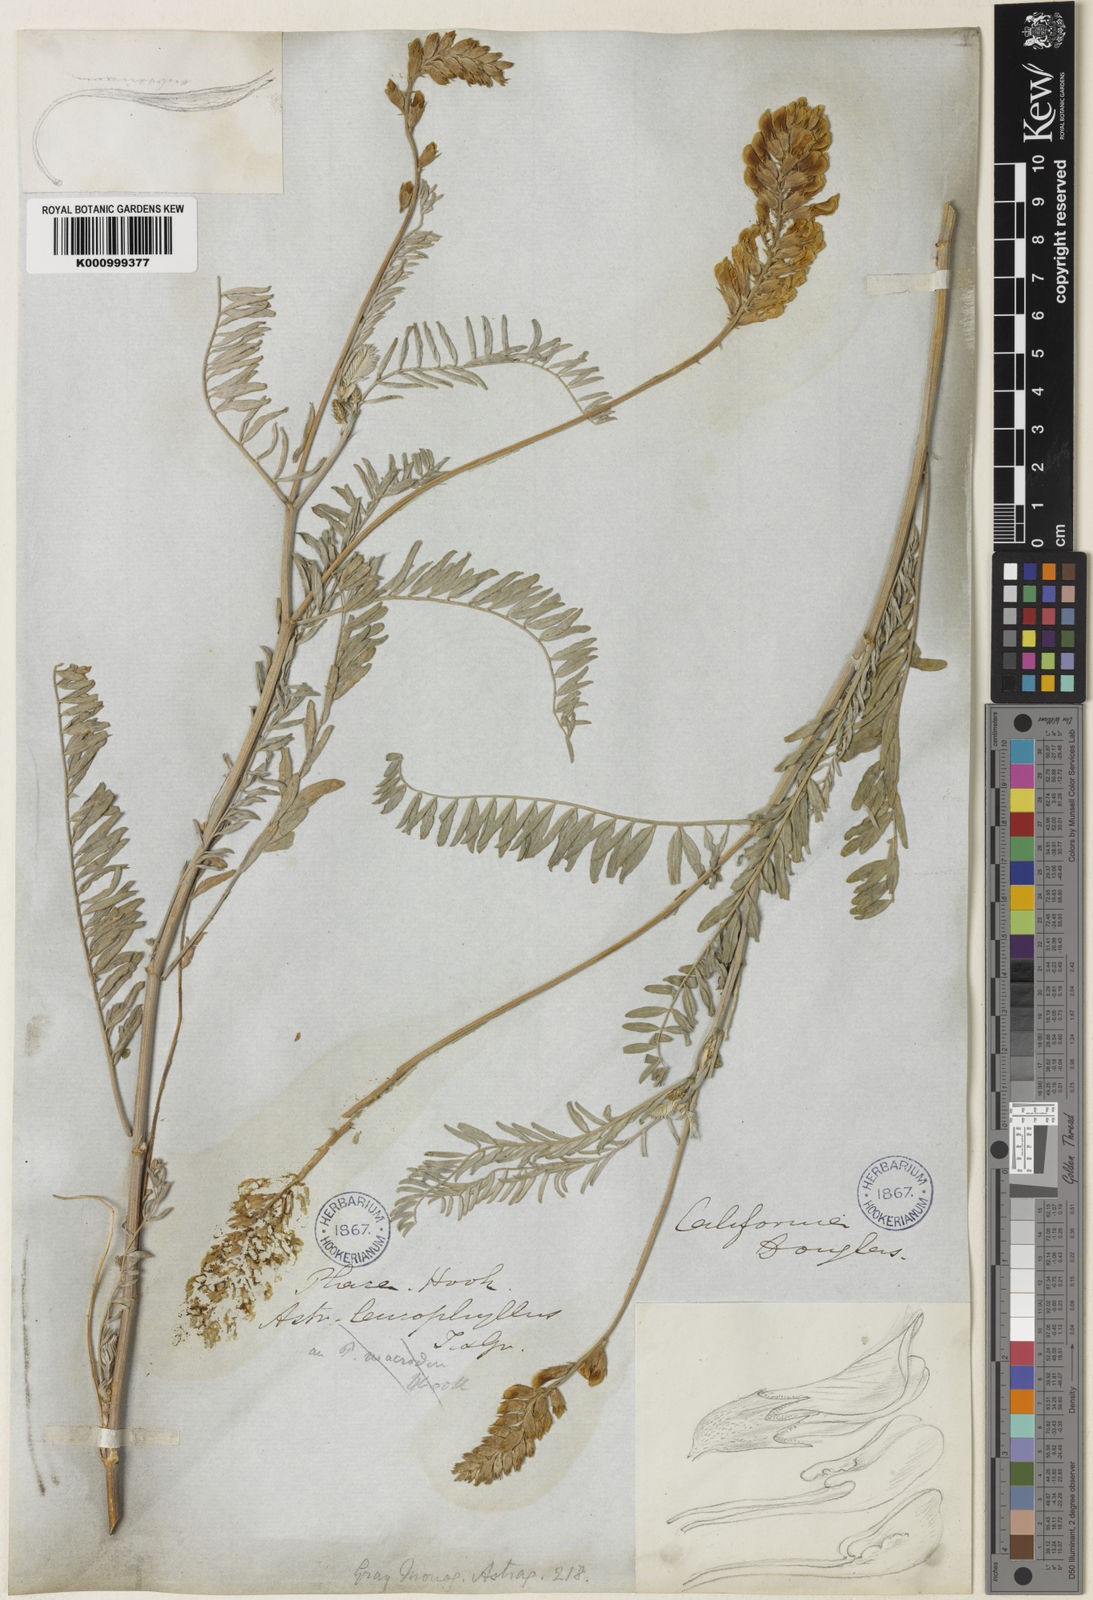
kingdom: Plantae
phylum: Tracheophyta
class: Magnoliopsida
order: Fabales
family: Fabaceae
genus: Astragalus
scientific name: Astragalus asymmetricus
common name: Horse locoweed
